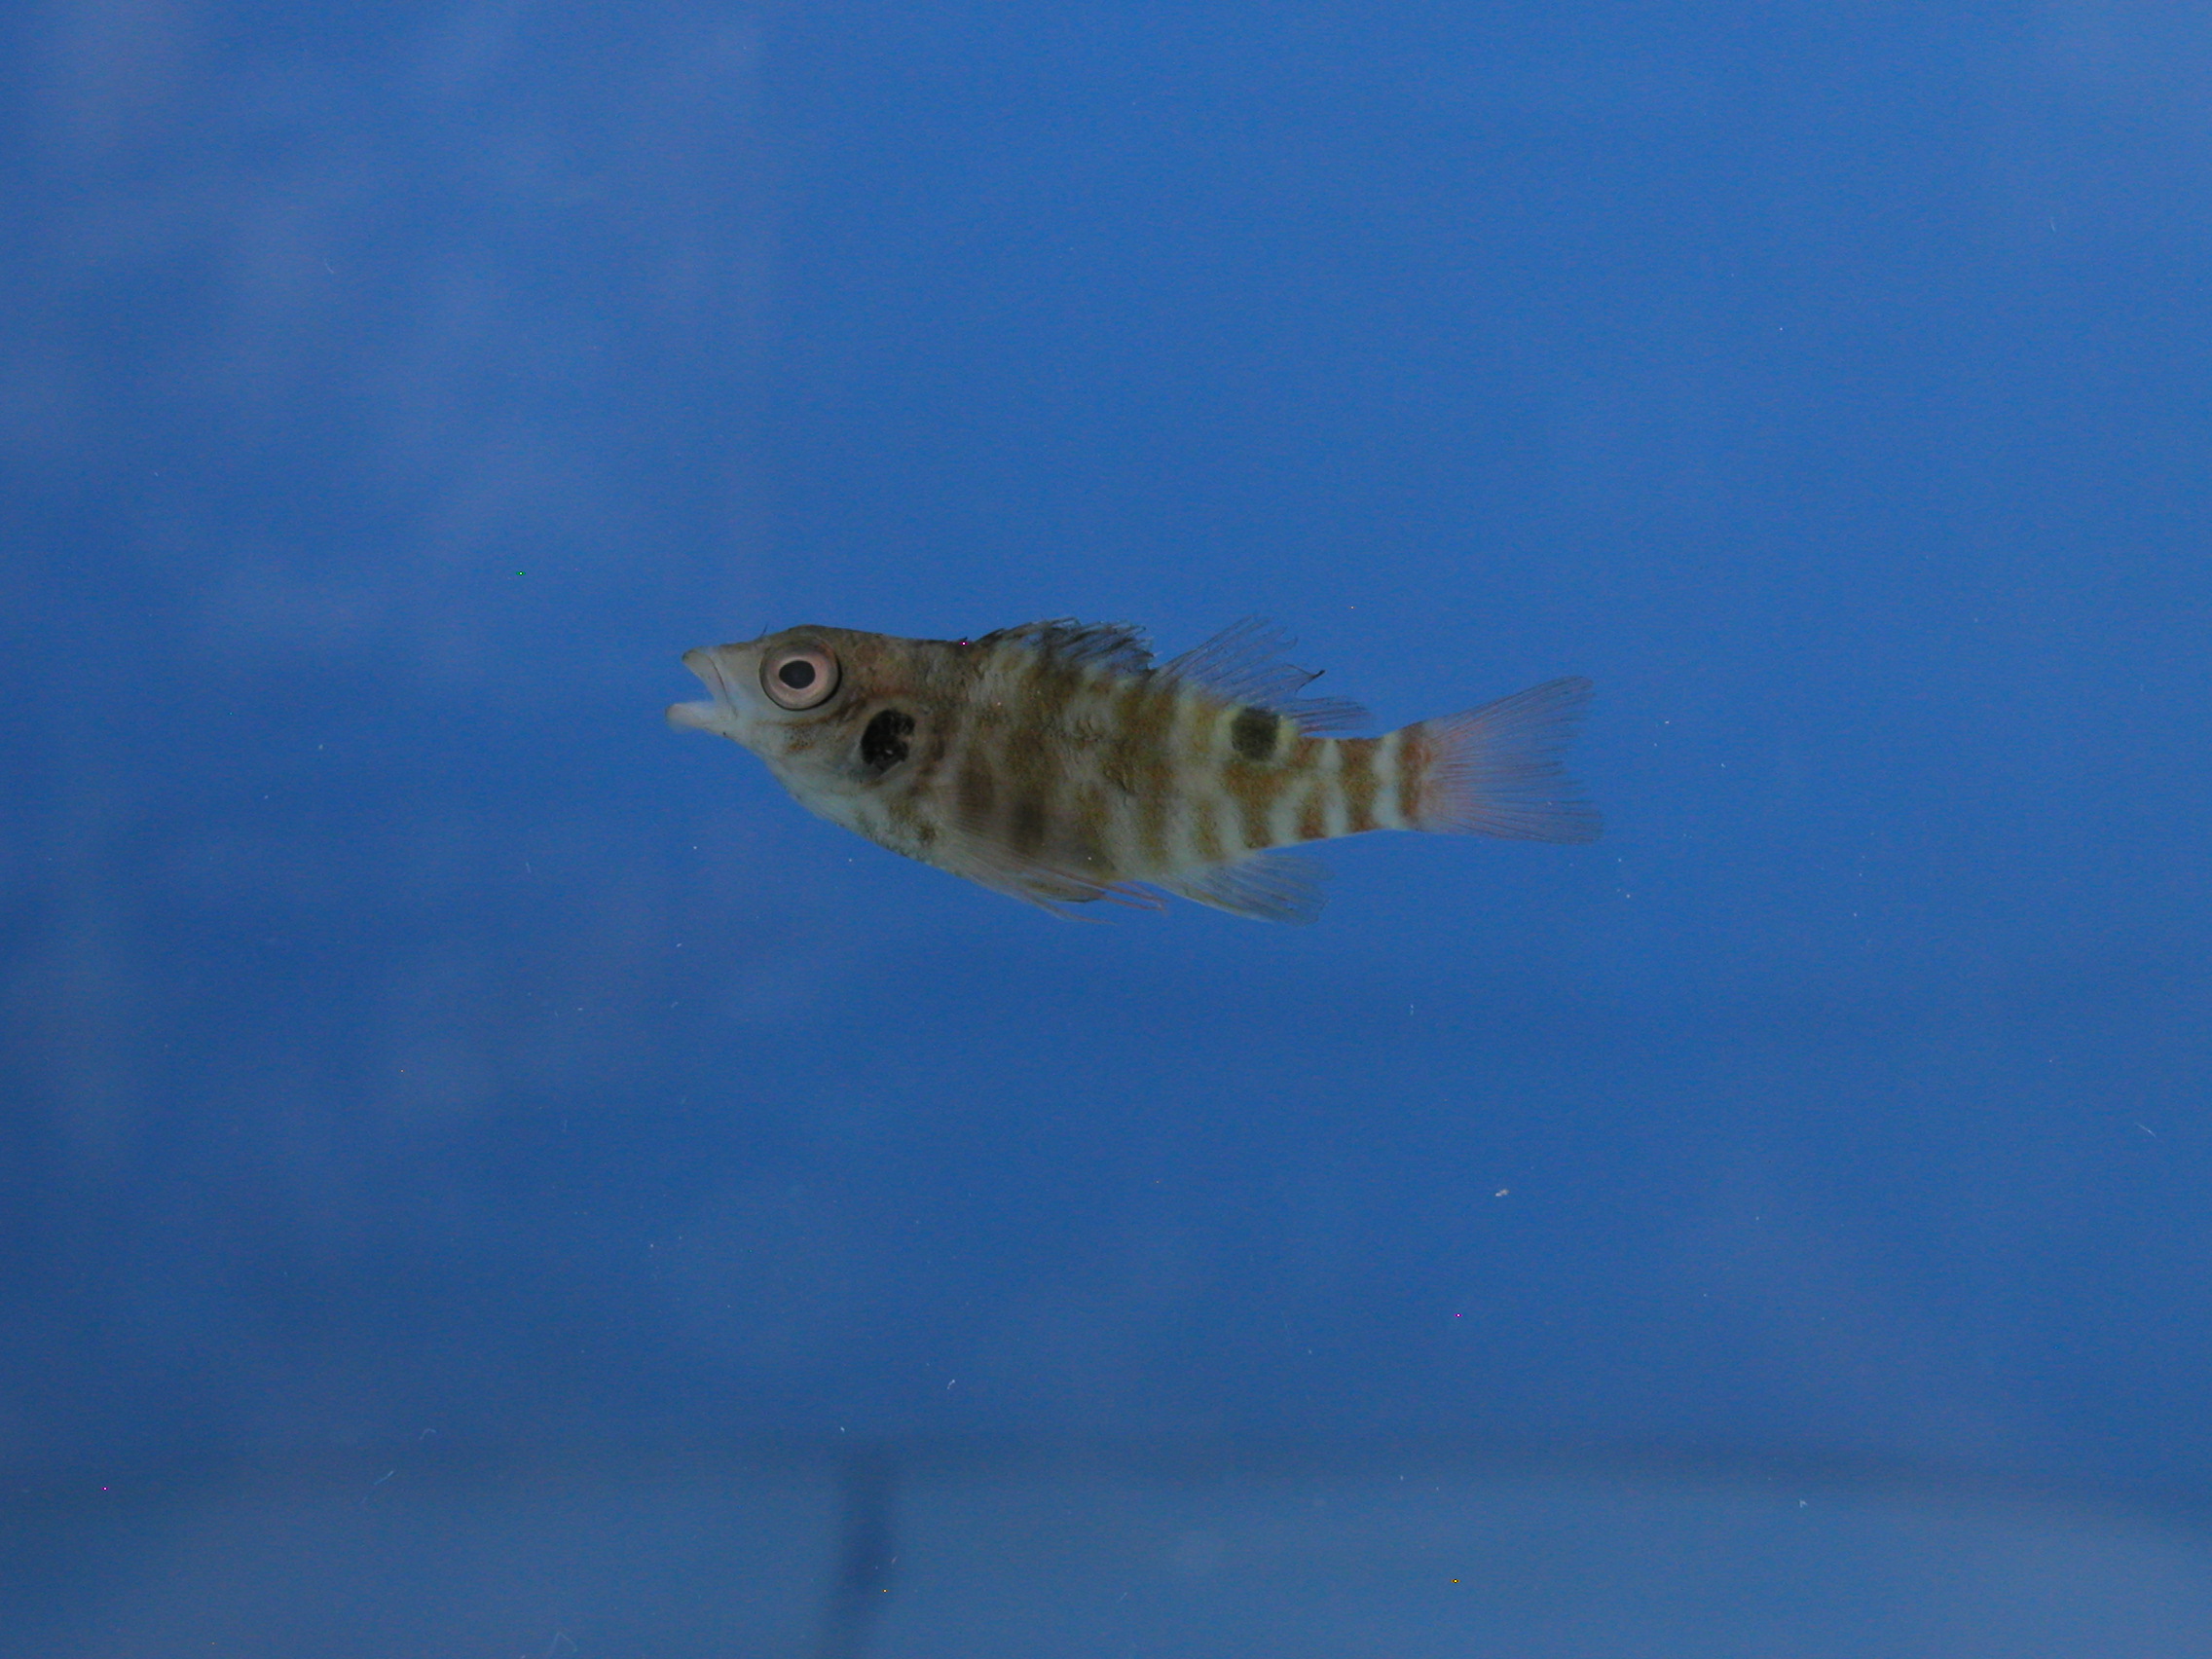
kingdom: Animalia
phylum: Chordata
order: Perciformes
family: Cirrhitidae
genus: Amblycirrhitus
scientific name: Amblycirrhitus bimacula
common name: Twinspot hawkfish
